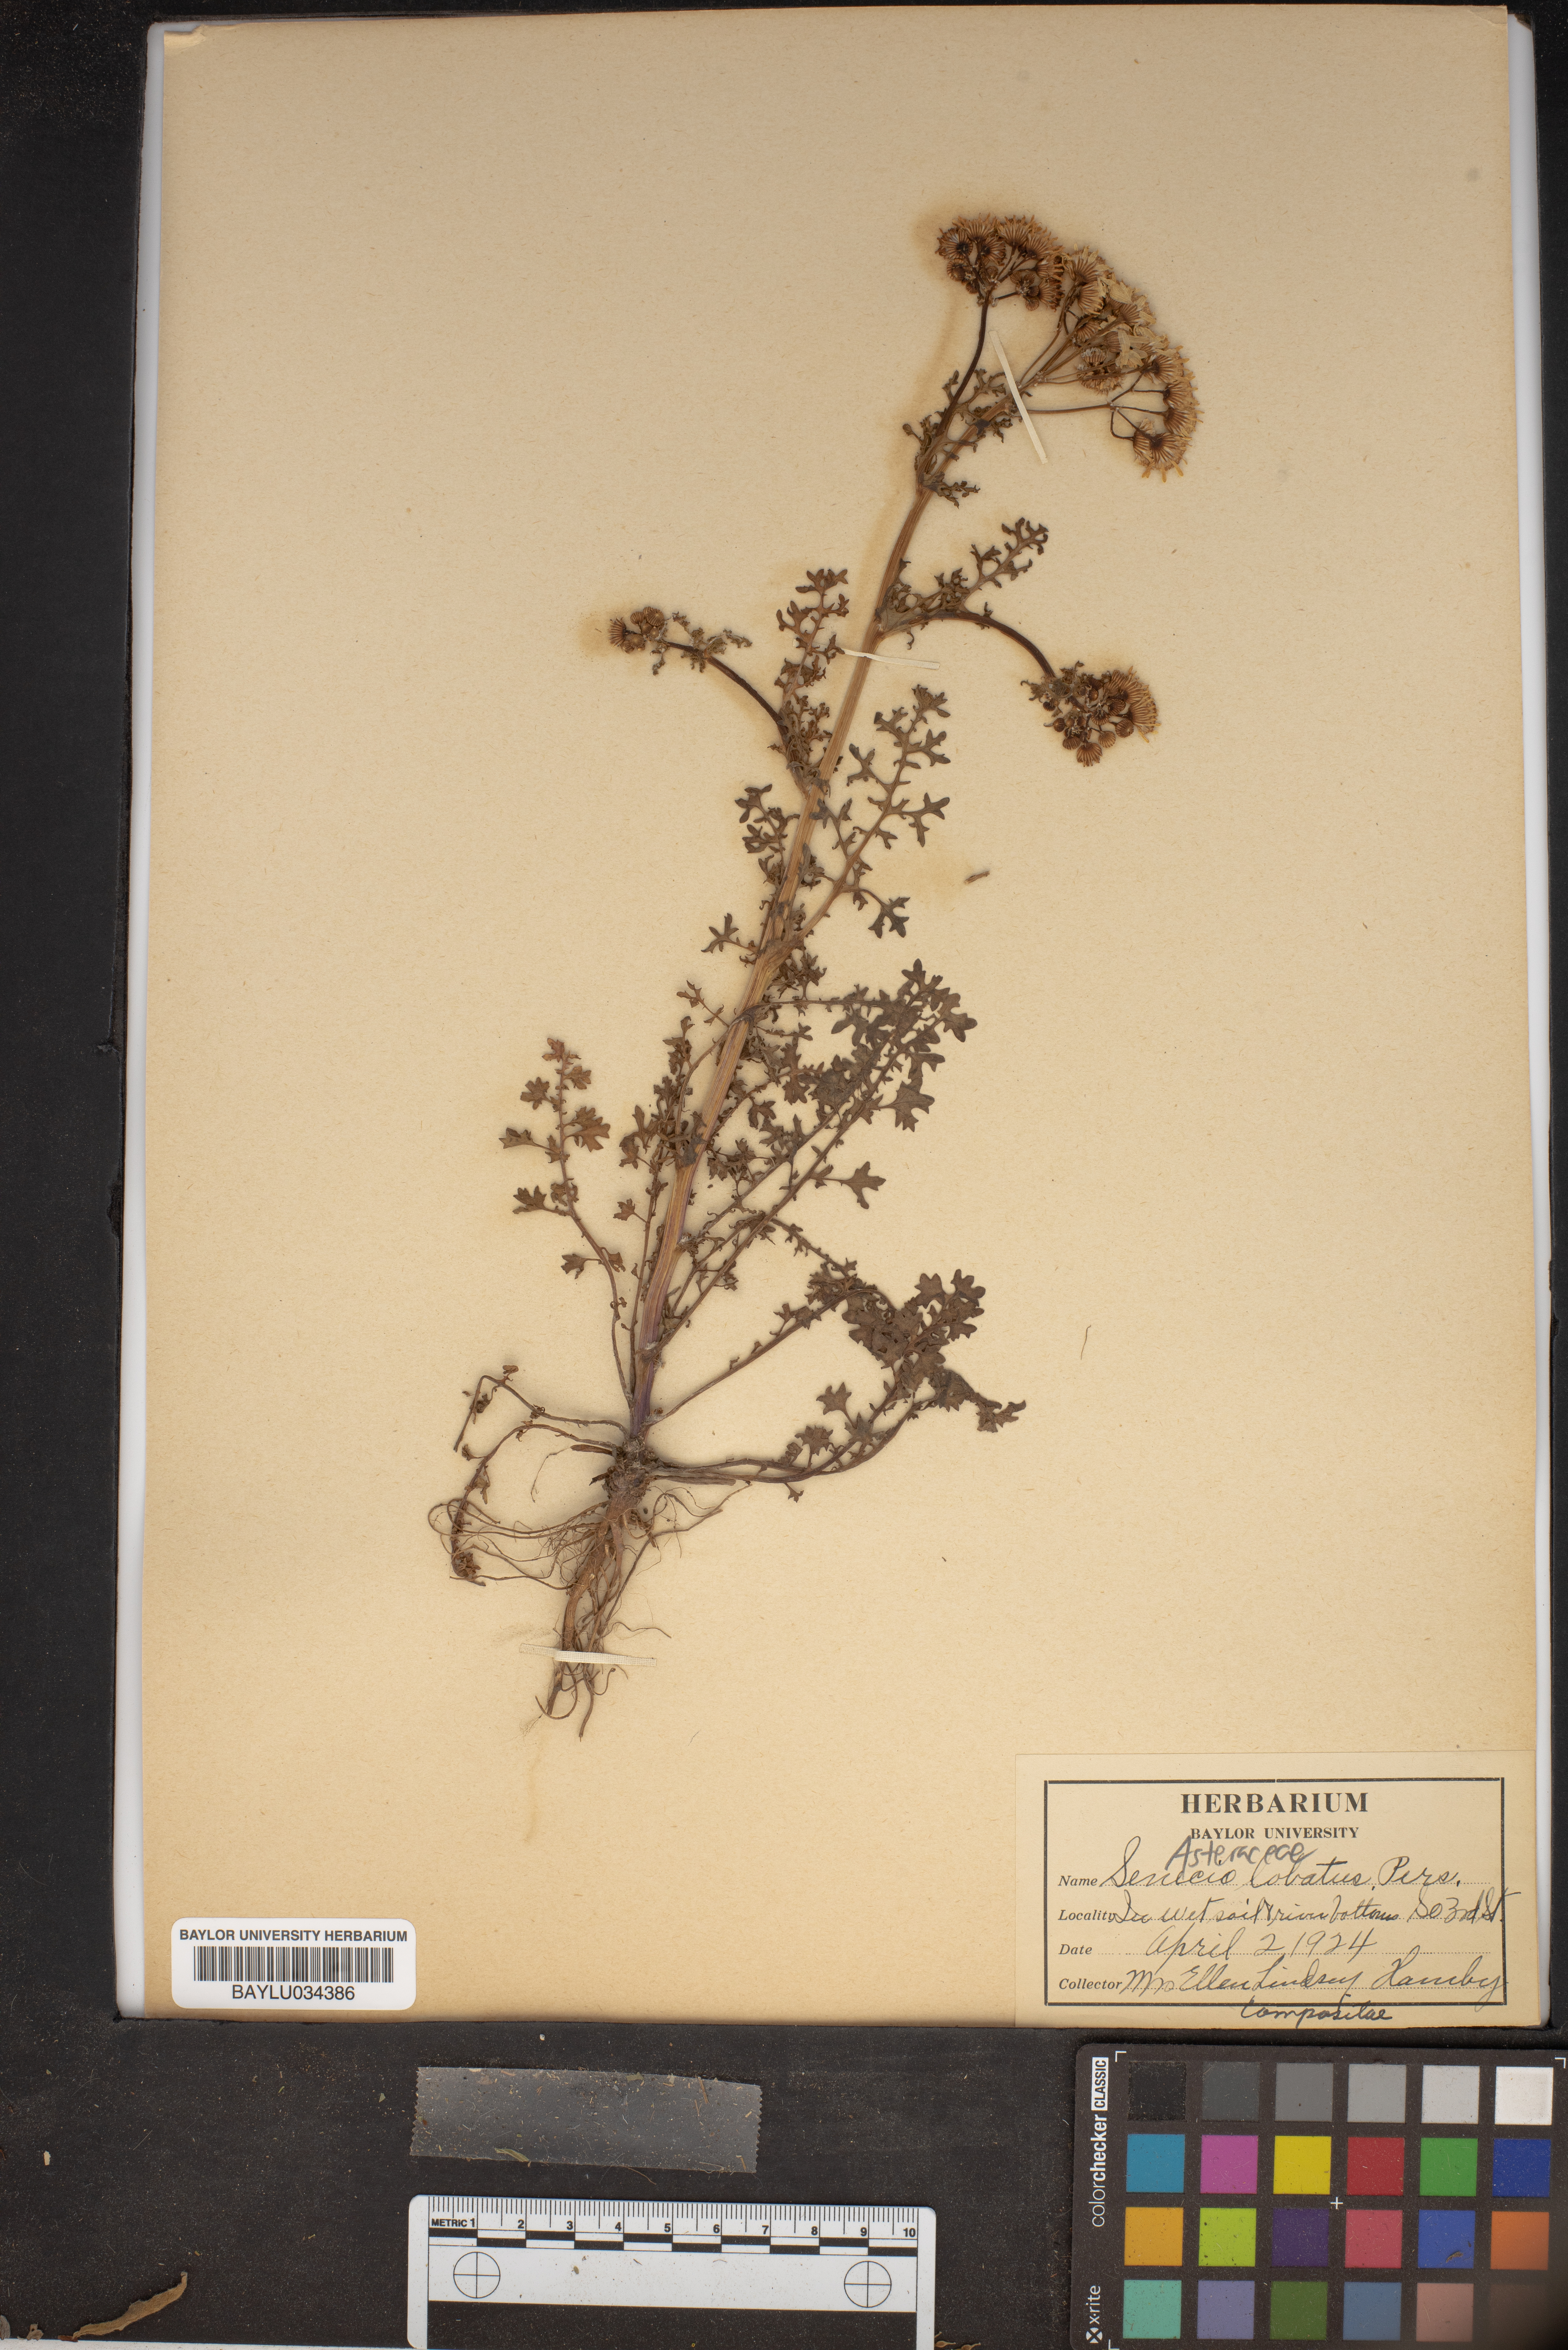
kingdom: Plantae
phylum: Tracheophyta
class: Magnoliopsida
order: Asterales
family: Asteraceae
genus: Packera
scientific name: Packera glabella
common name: Butterweed
